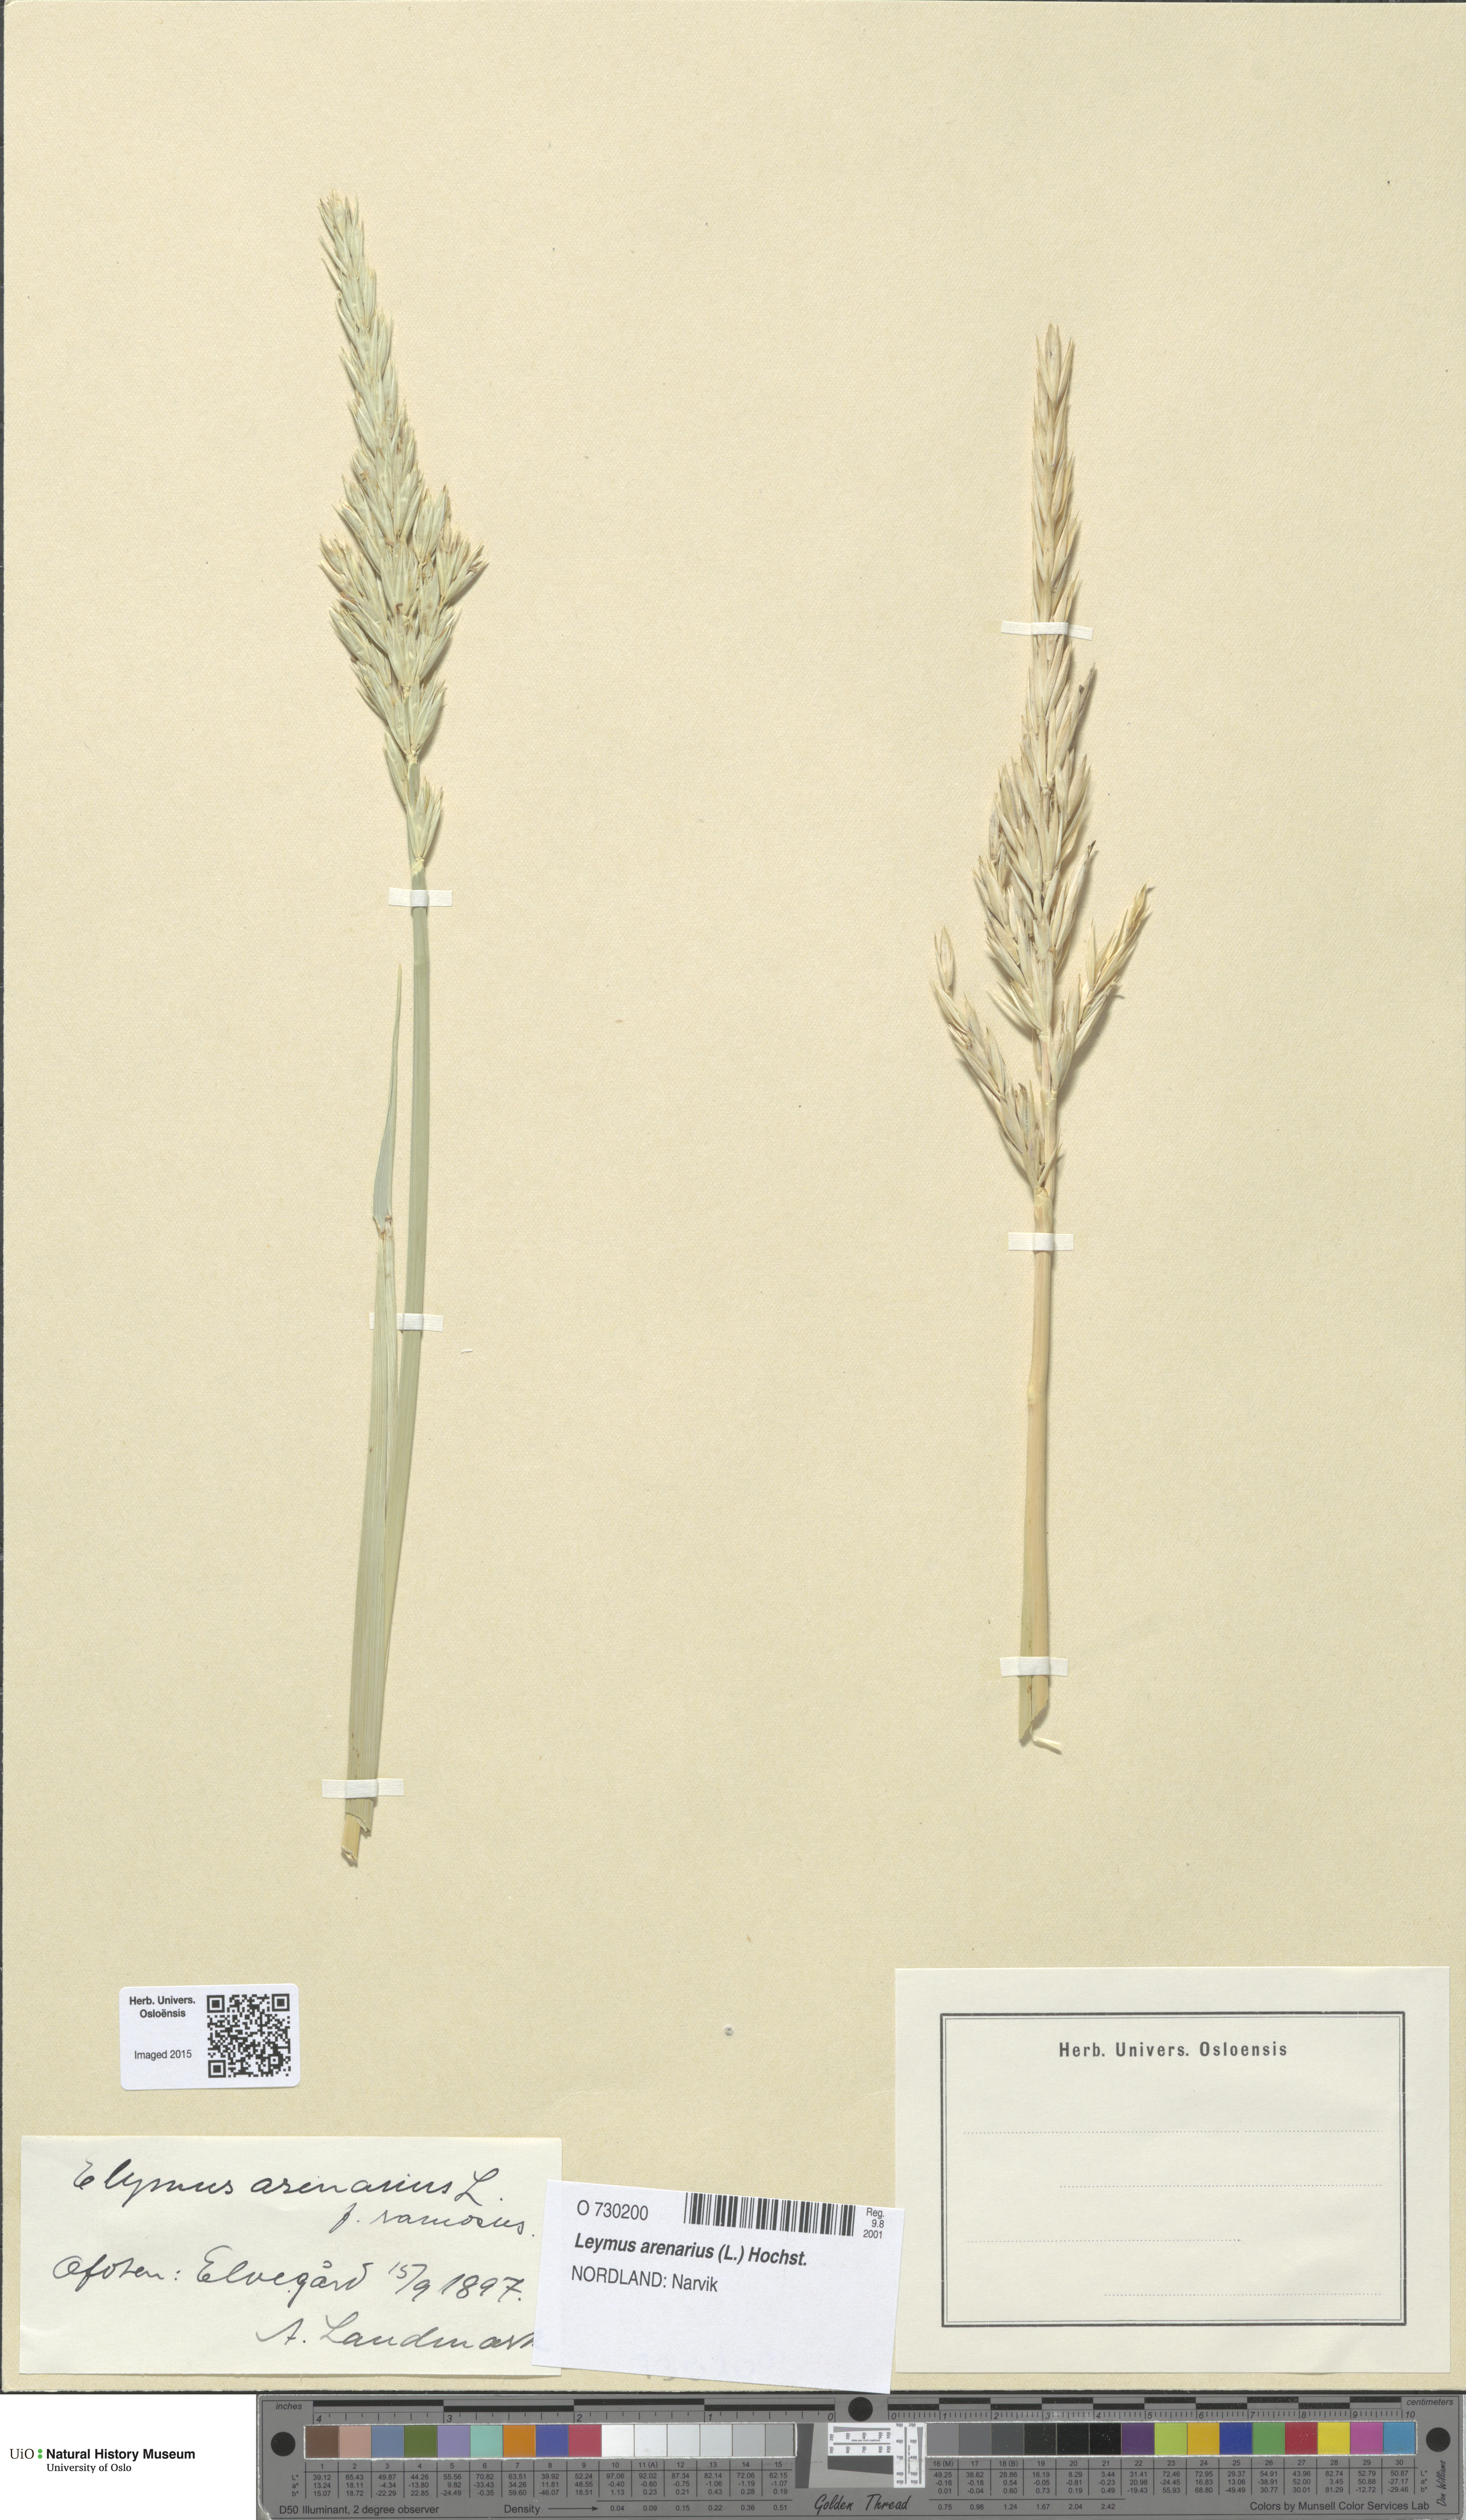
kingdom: Plantae
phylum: Tracheophyta
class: Liliopsida
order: Poales
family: Poaceae
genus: Leymus
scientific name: Leymus arenarius
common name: Lyme-grass
